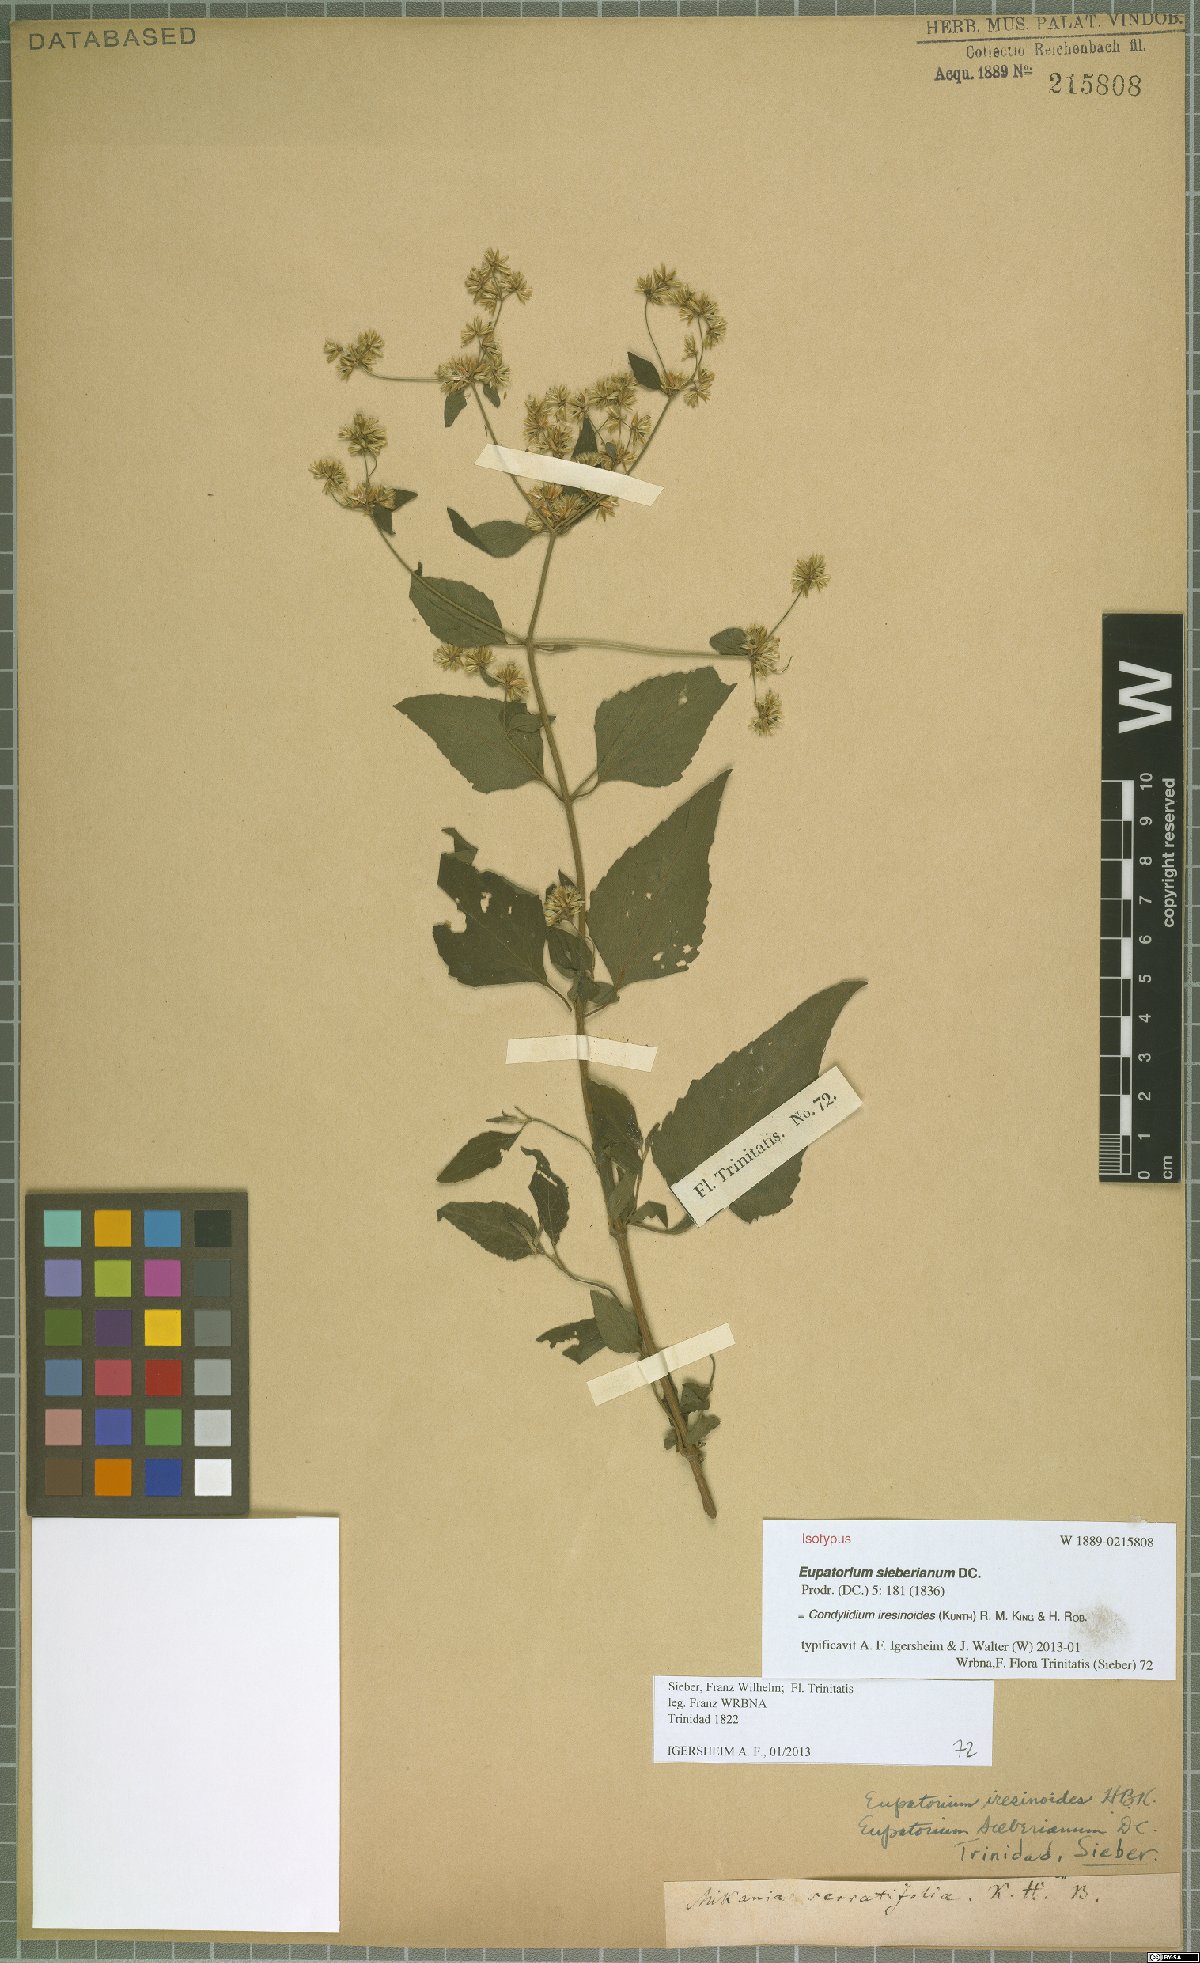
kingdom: Plantae
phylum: Tracheophyta
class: Magnoliopsida
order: Asterales
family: Asteraceae
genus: Condylidium
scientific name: Condylidium iresinoides
